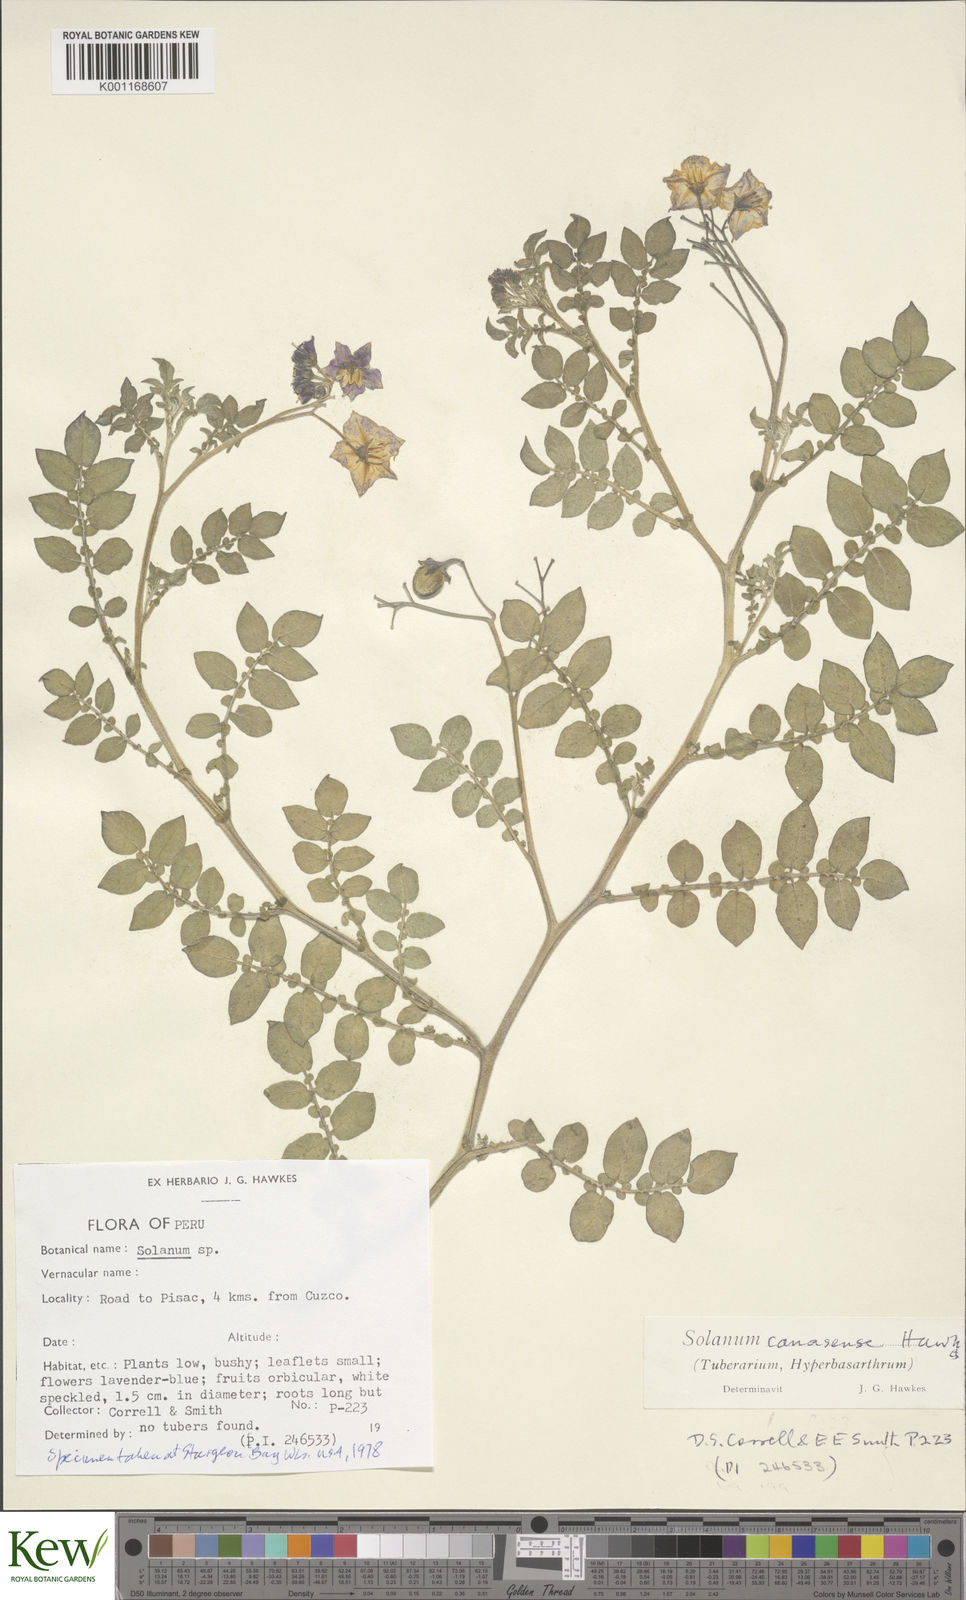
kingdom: Plantae
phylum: Tracheophyta
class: Magnoliopsida
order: Solanales
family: Solanaceae
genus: Solanum
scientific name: Solanum candolleanum
